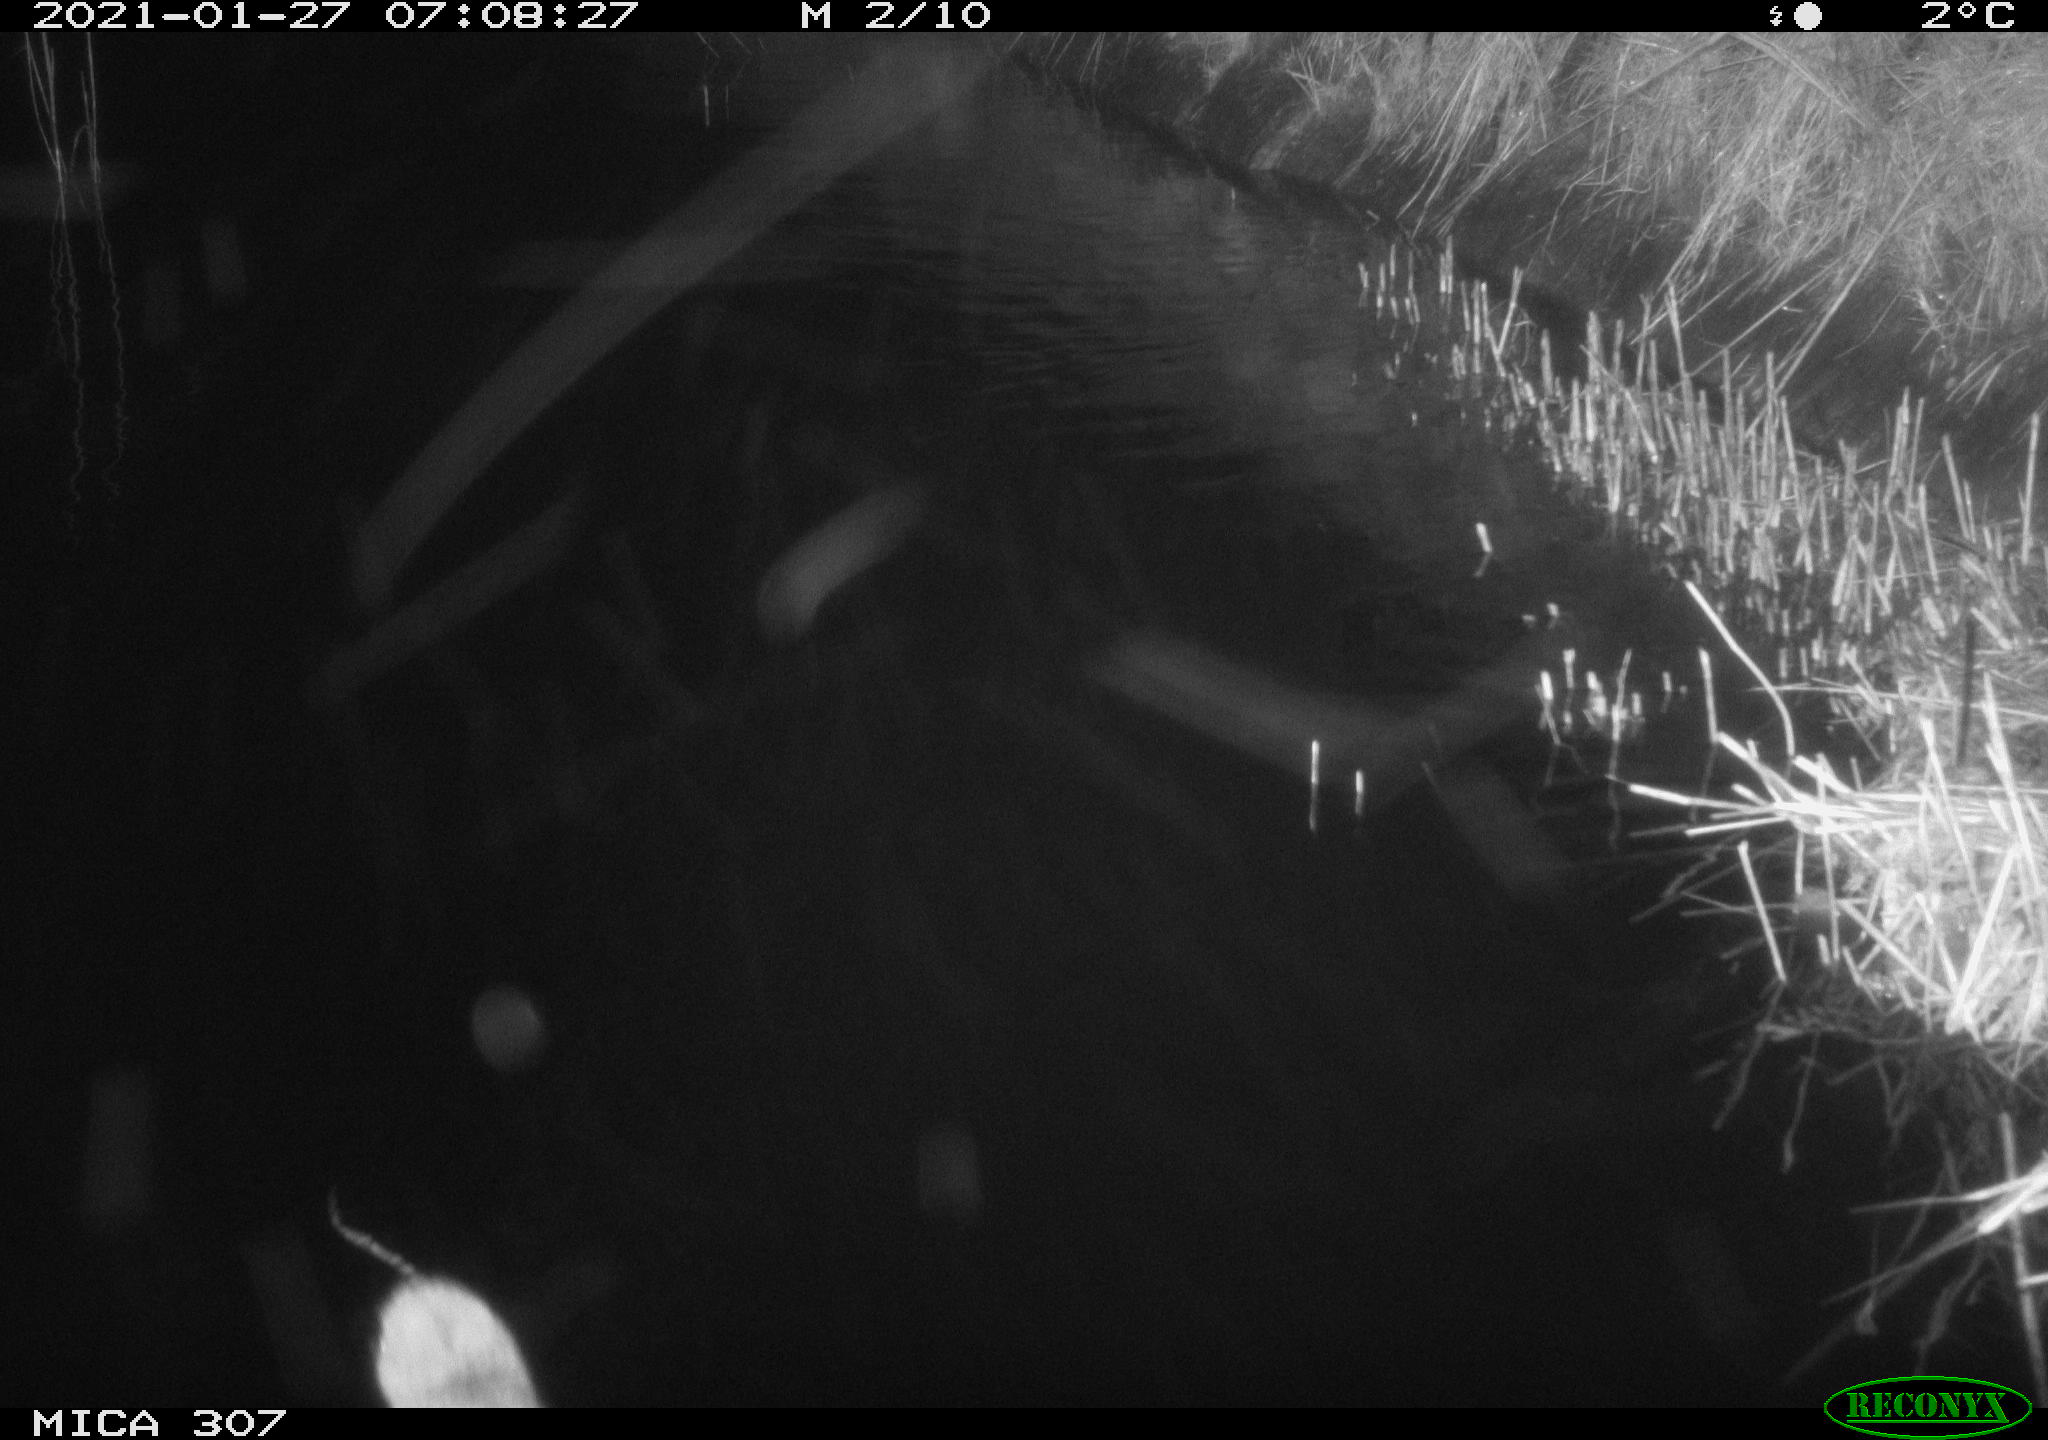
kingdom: Animalia
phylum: Chordata
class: Mammalia
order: Rodentia
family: Cricetidae
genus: Ondatra
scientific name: Ondatra zibethicus
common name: Muskrat
